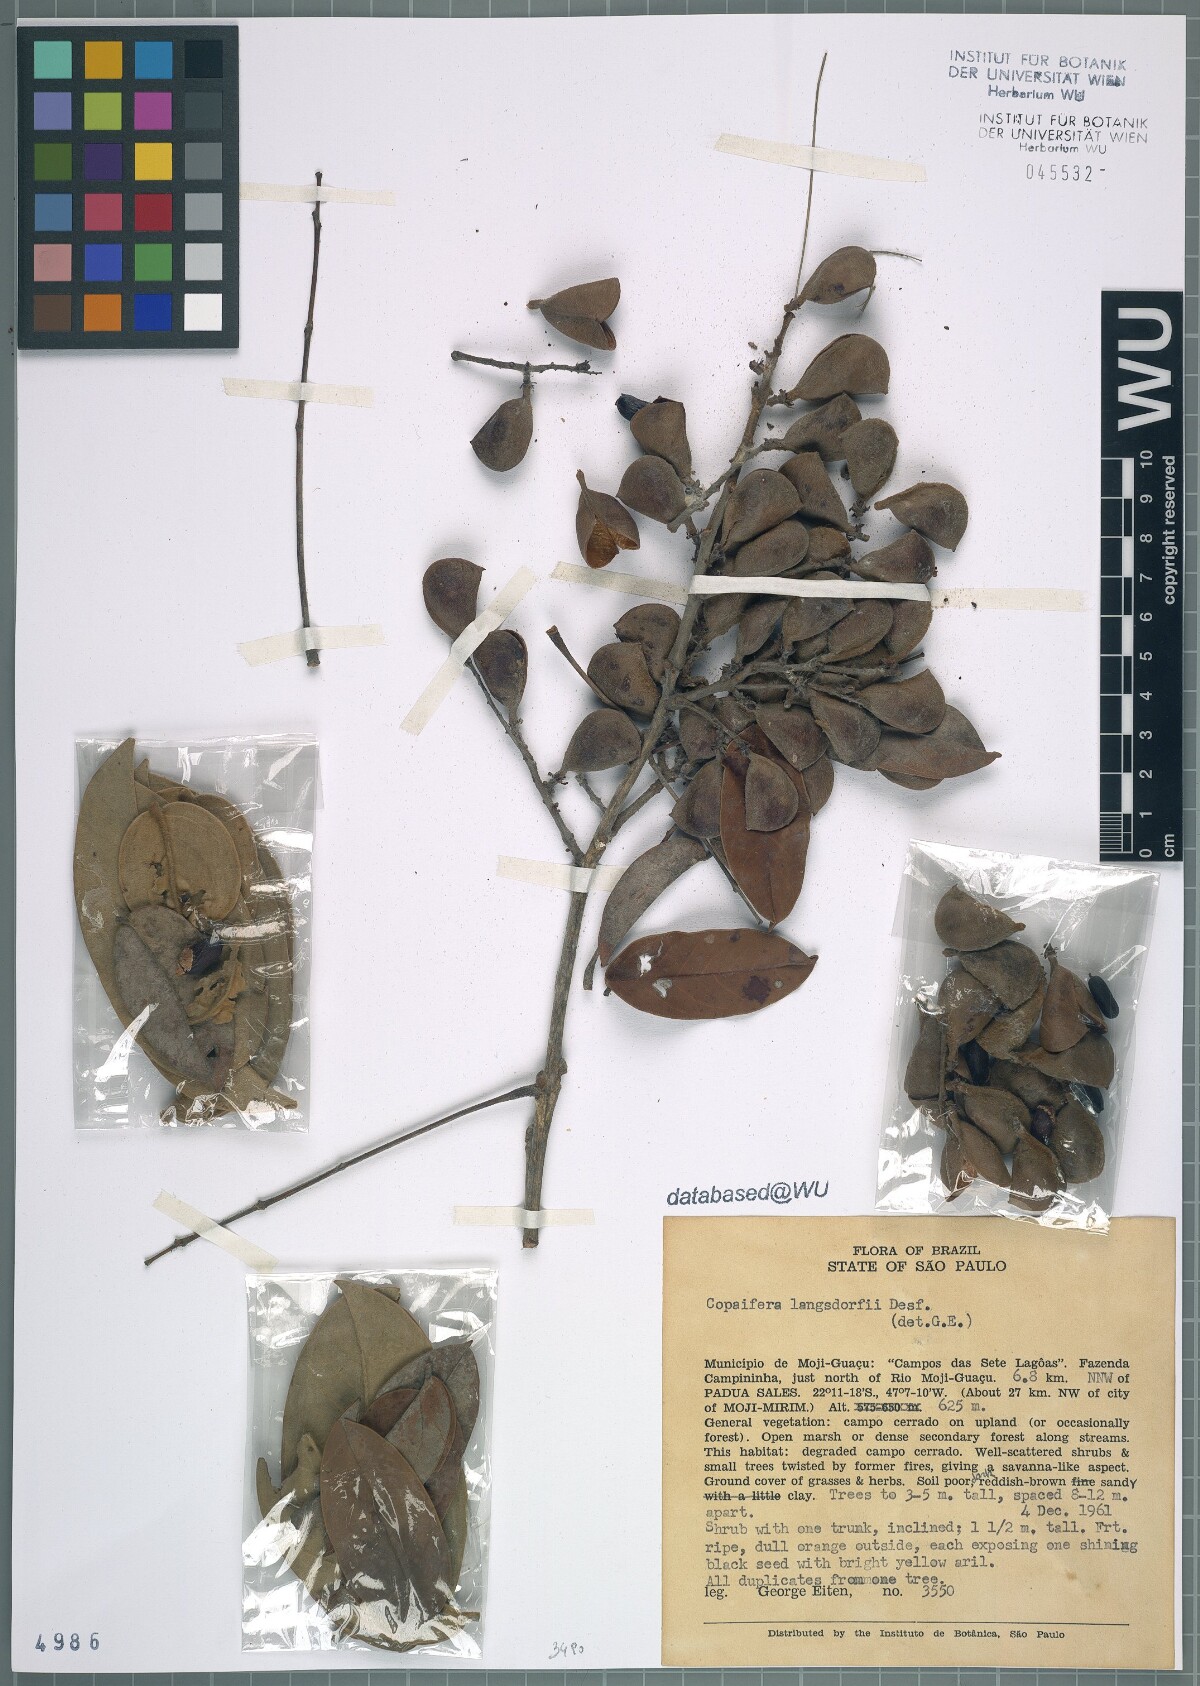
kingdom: Plantae
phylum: Tracheophyta
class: Magnoliopsida
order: Fabales
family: Fabaceae
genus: Copaifera
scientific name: Copaifera langsdorffii
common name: Brazilian diesel tree
